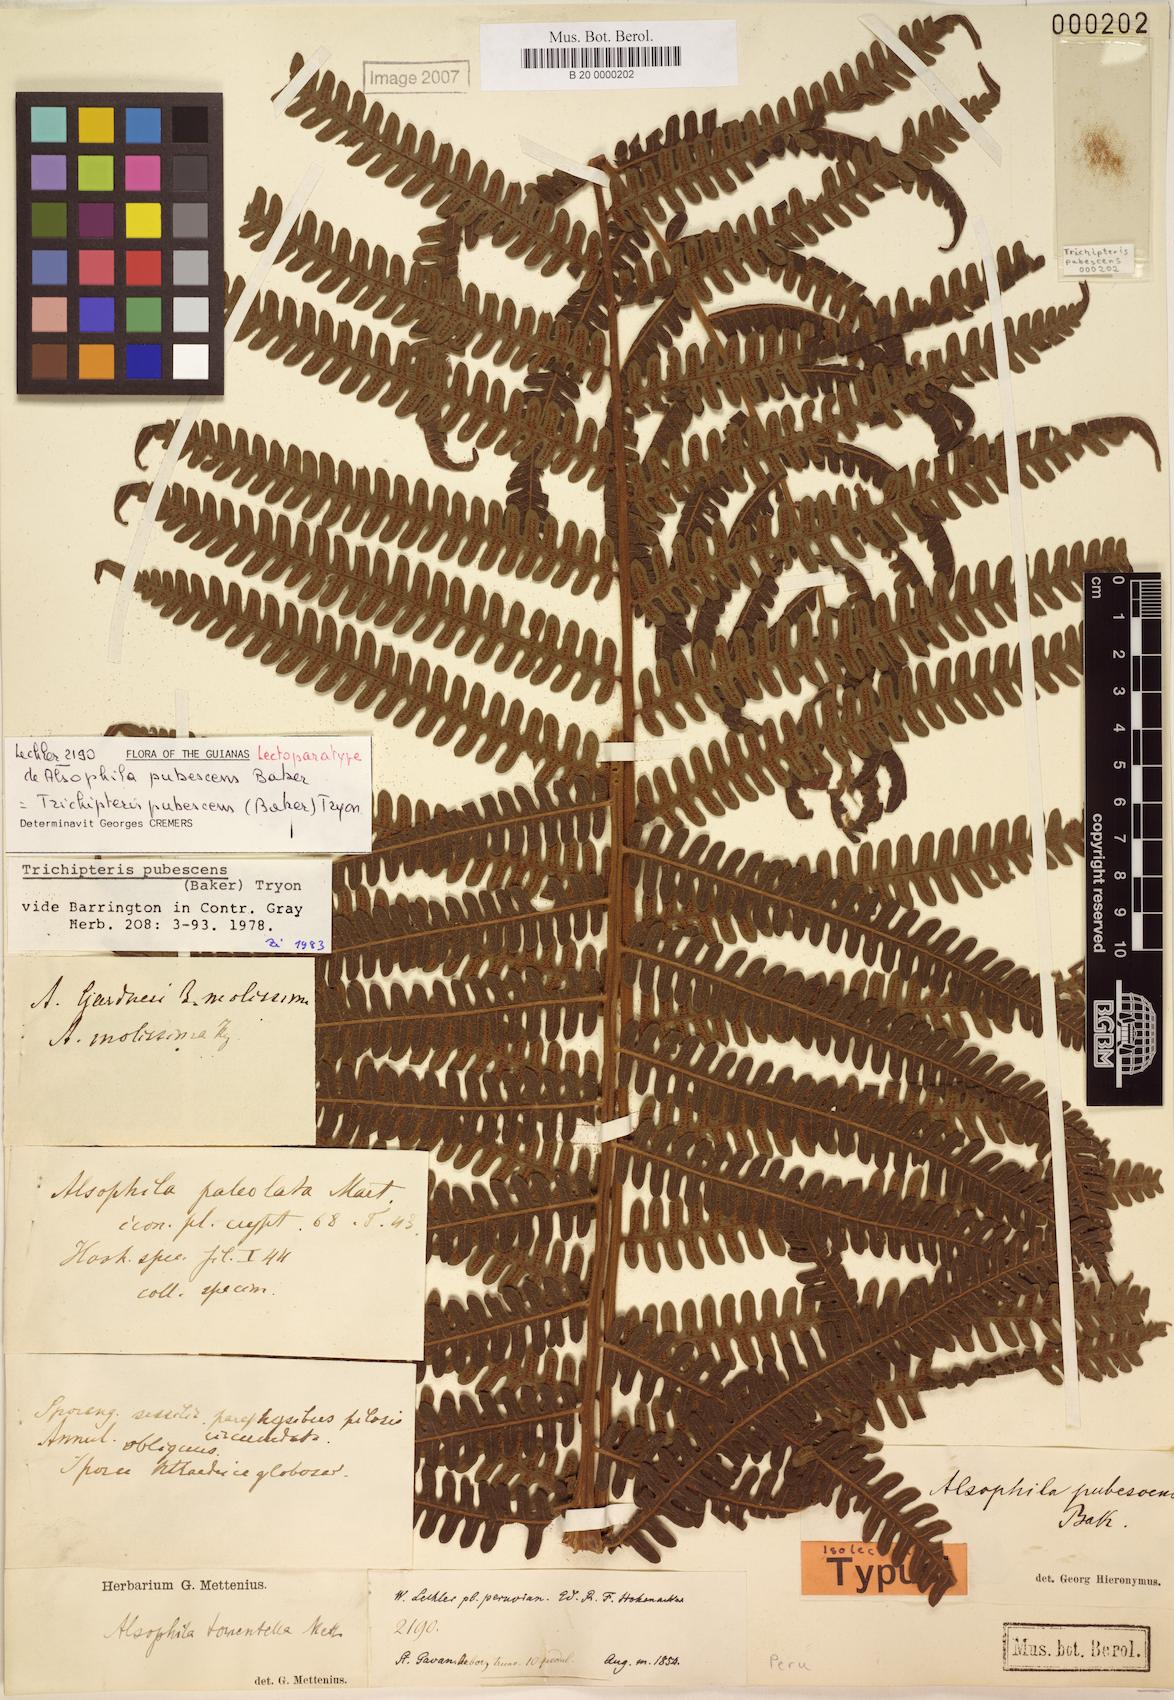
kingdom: Plantae
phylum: Tracheophyta
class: Polypodiopsida
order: Cyatheales
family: Cyatheaceae
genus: Cyathea
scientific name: Cyathea bipinnatifida
